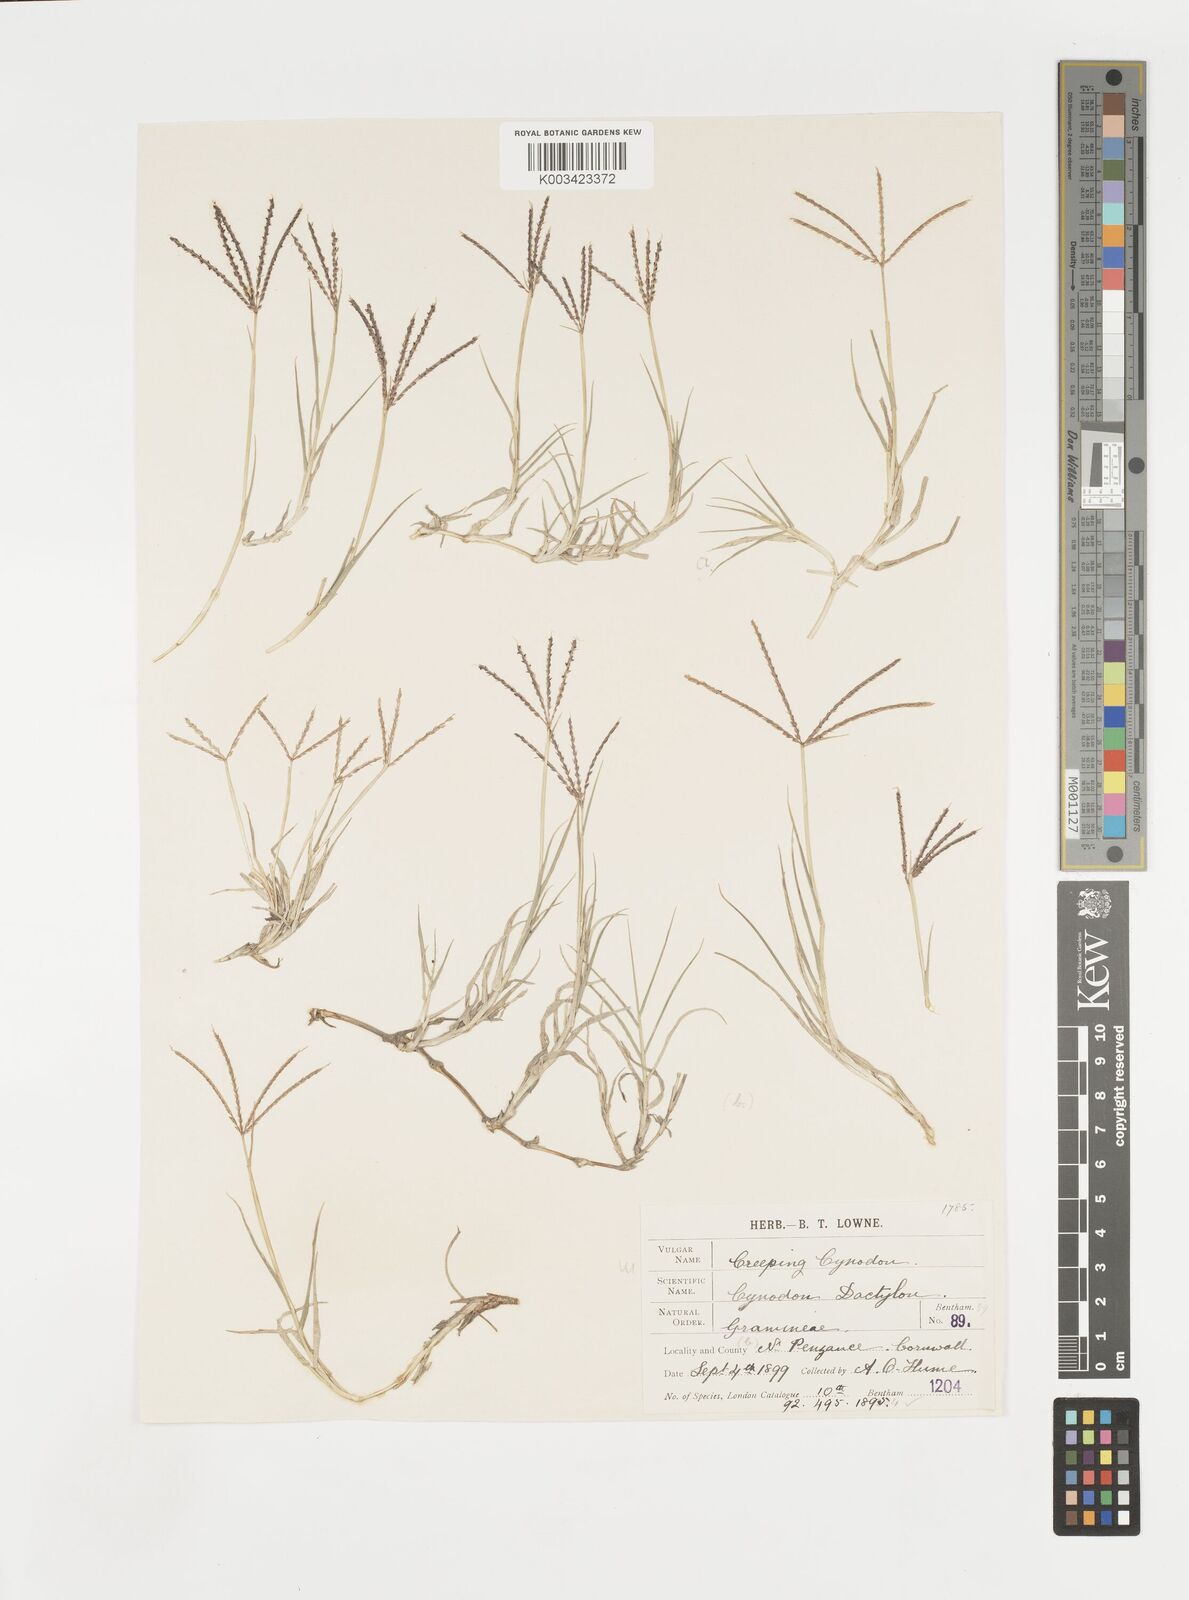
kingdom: Plantae
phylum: Tracheophyta
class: Liliopsida
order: Poales
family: Poaceae
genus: Cynodon
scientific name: Cynodon dactylon
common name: Bermuda grass
